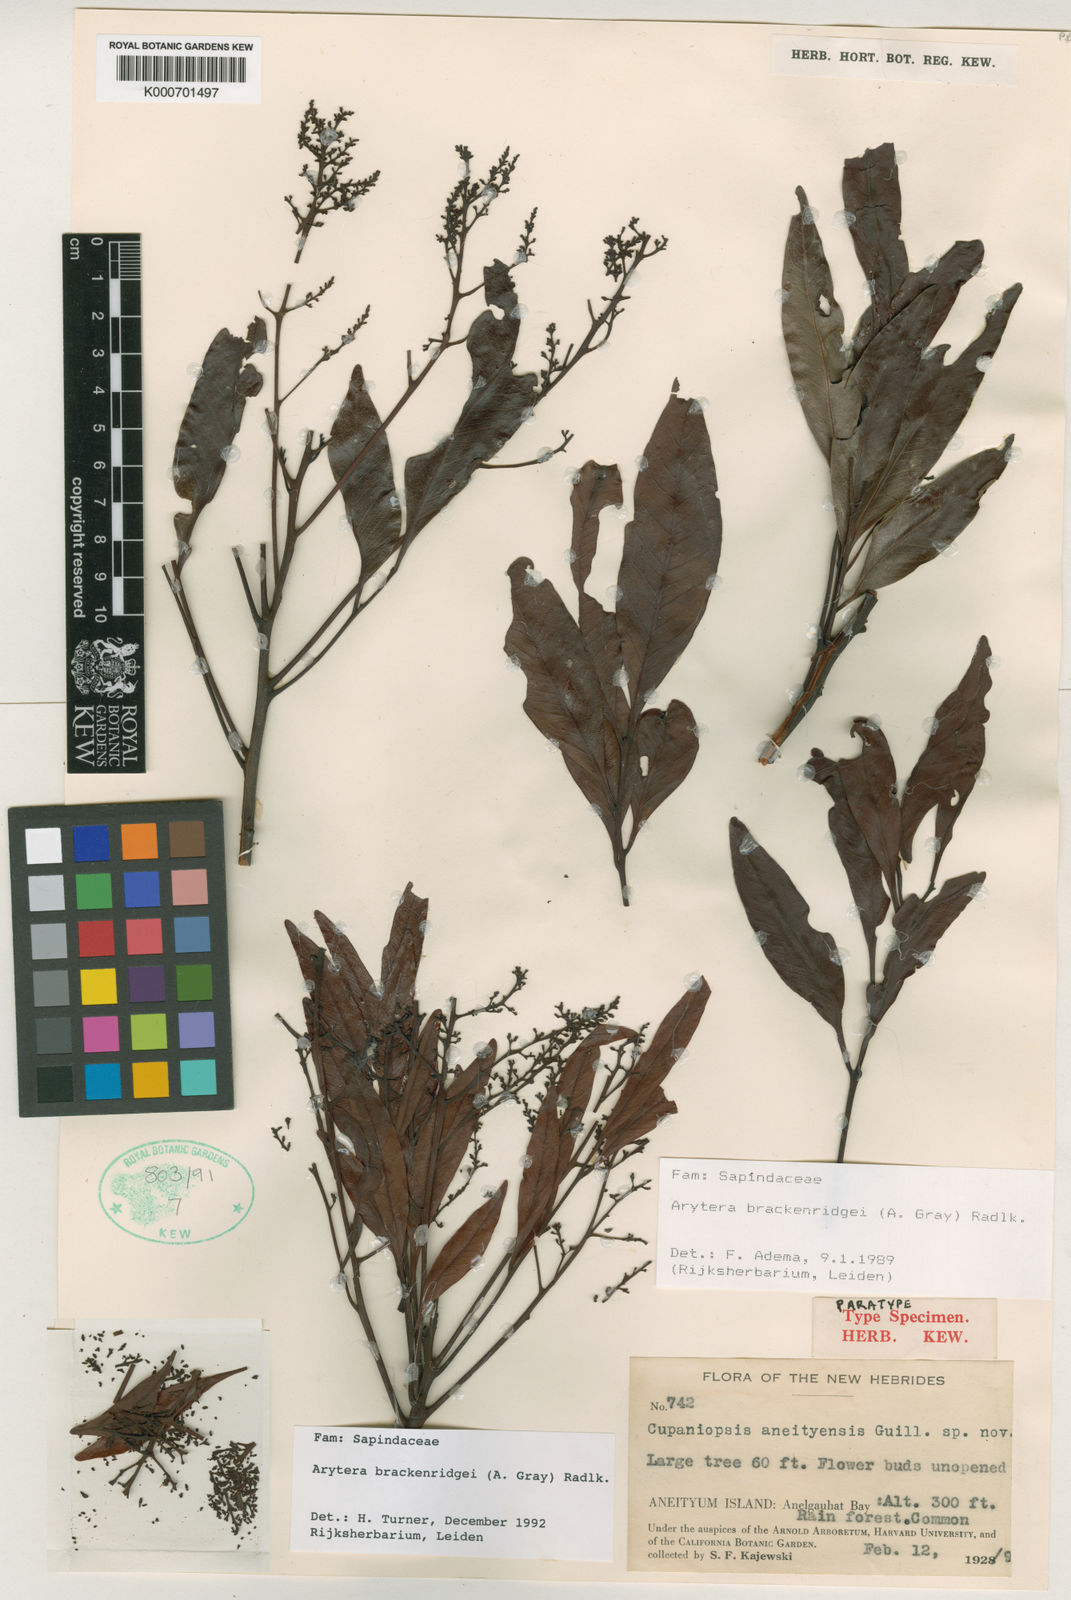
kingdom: Plantae
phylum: Tracheophyta
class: Magnoliopsida
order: Sapindales
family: Sapindaceae
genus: Lepidocupania
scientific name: Lepidocupania brackenridgei
